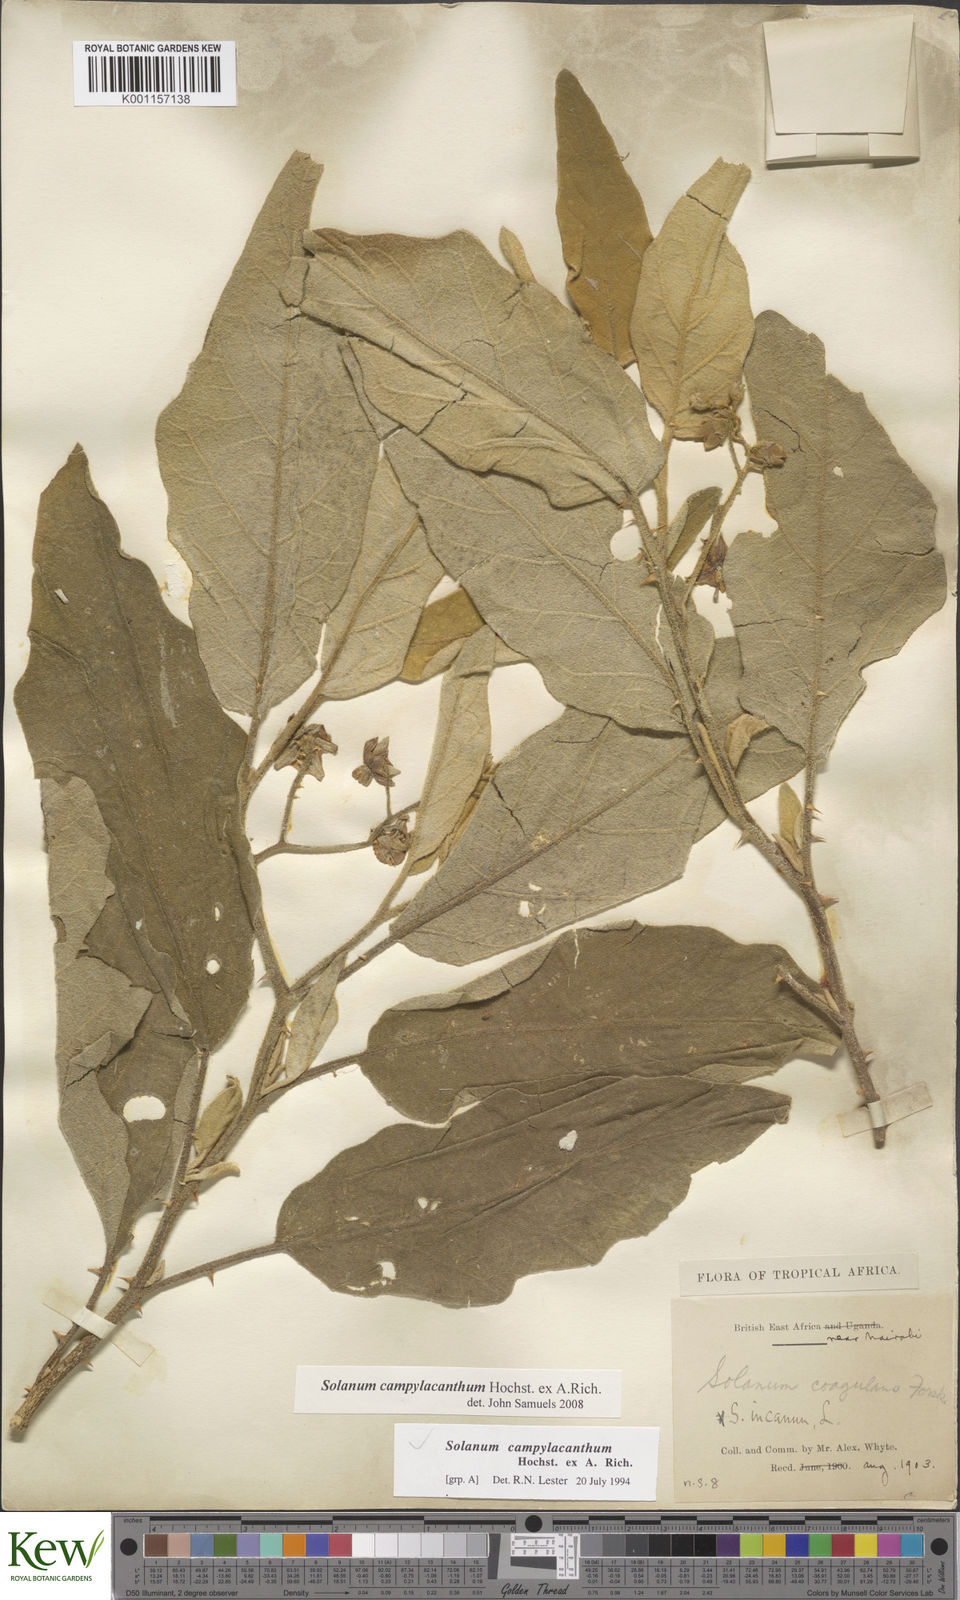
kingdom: Plantae
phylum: Tracheophyta
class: Magnoliopsida
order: Solanales
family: Solanaceae
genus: Solanum
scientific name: Solanum campylacanthum
